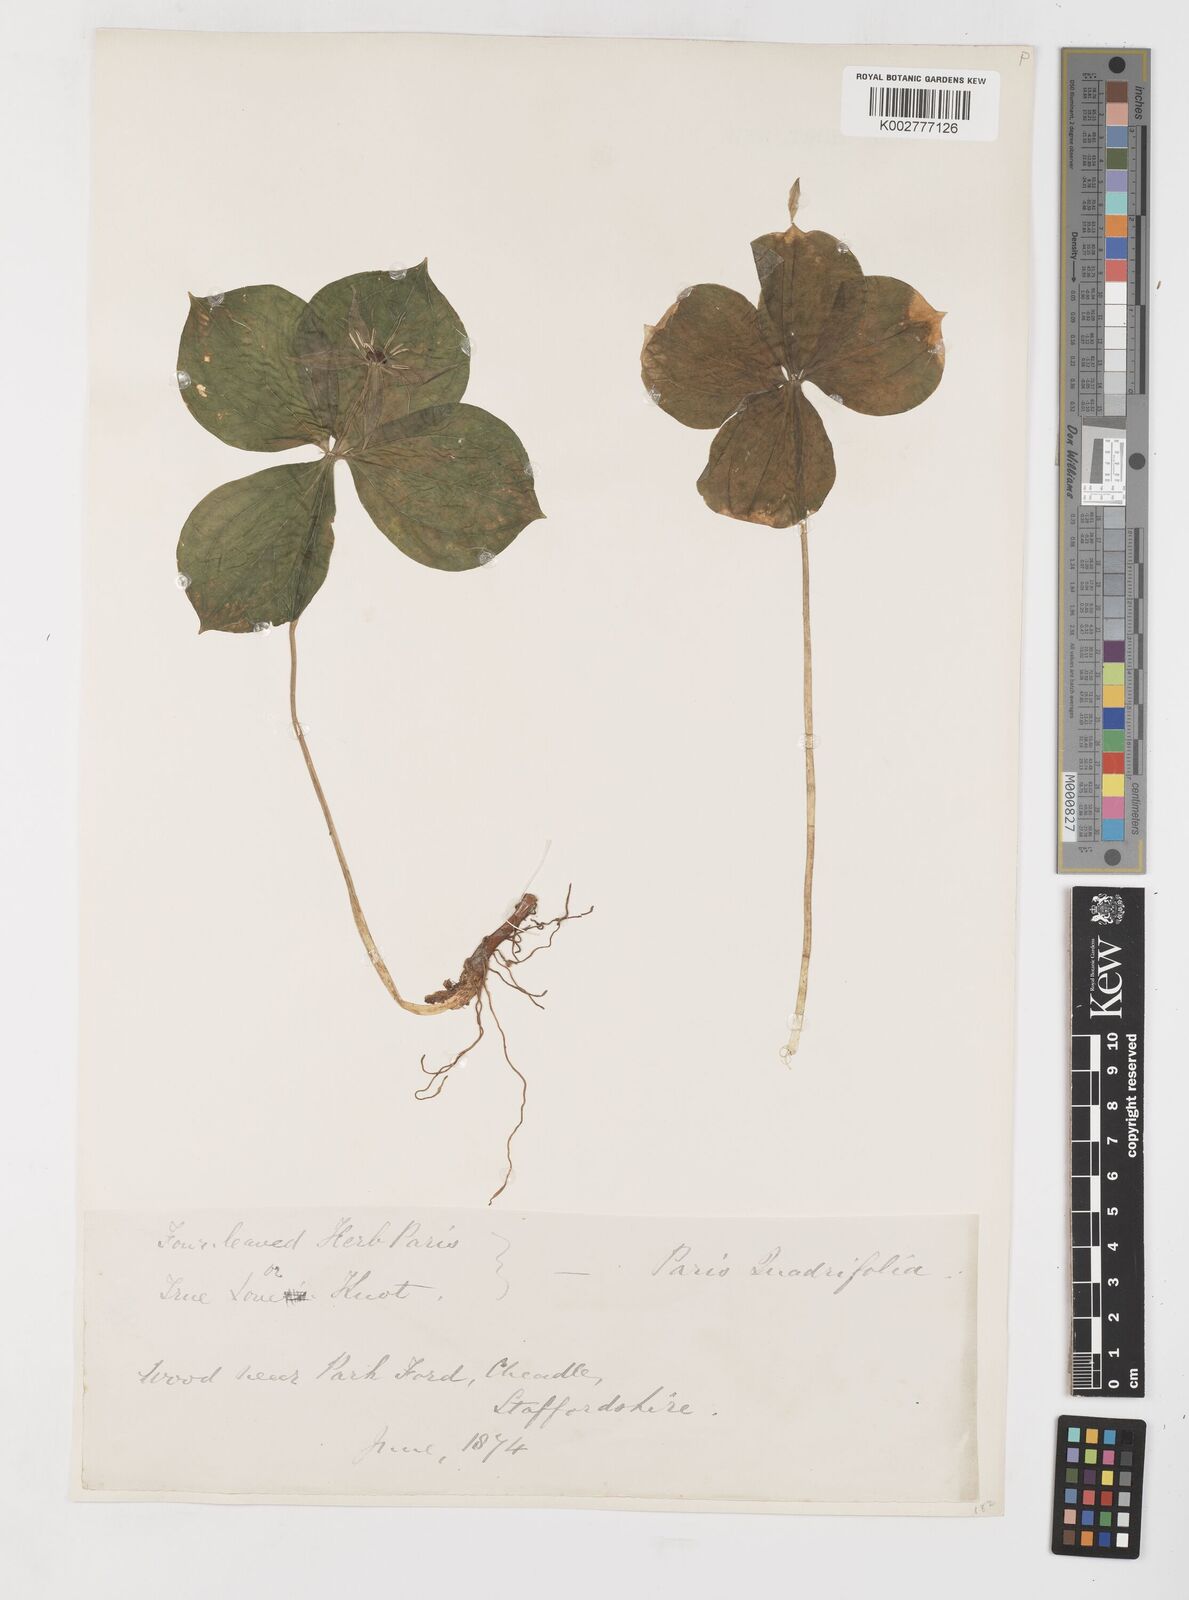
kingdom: Plantae
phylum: Tracheophyta
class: Liliopsida
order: Liliales
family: Melanthiaceae
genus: Paris
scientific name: Paris quadrifolia
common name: Herb-paris
